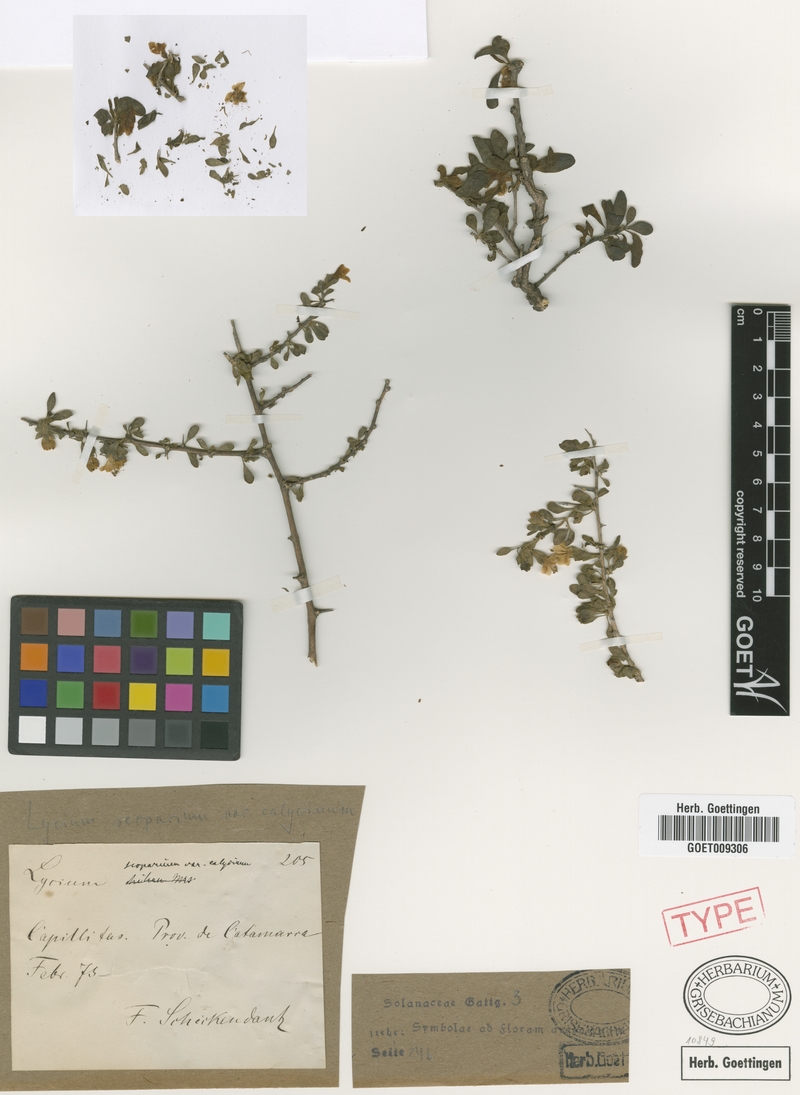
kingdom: Plantae
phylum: Tracheophyta
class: Magnoliopsida
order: Solanales
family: Solanaceae
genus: Lycium
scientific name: Lycium tenuispinosum
